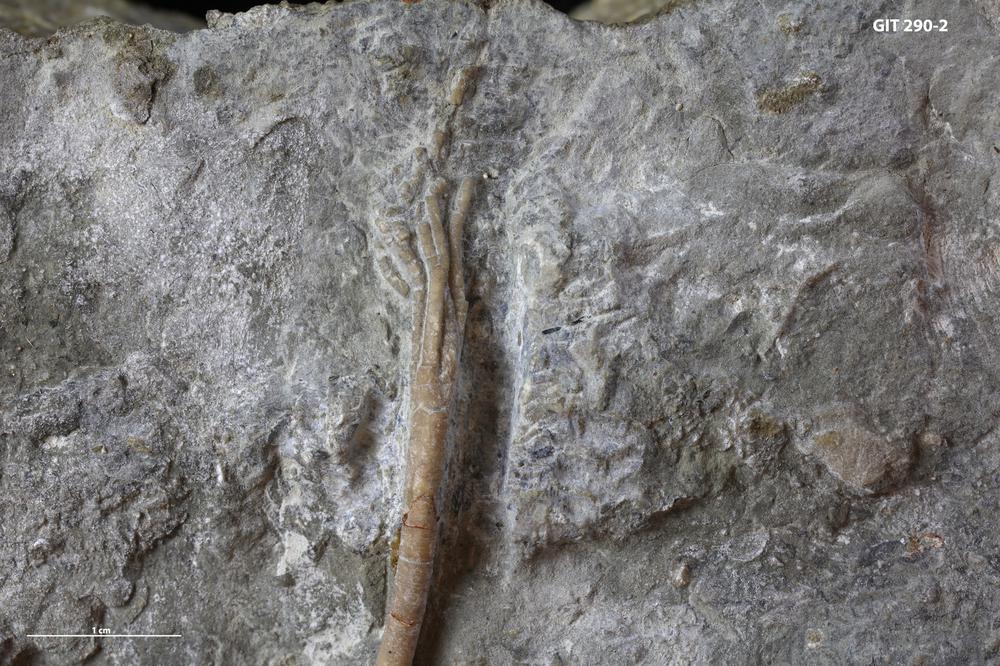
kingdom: Animalia
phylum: Echinodermata
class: Crinoidea
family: Eustenocrinidae
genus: Virucrinus
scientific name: Virucrinus Pentagonocyclicus kegelensis
